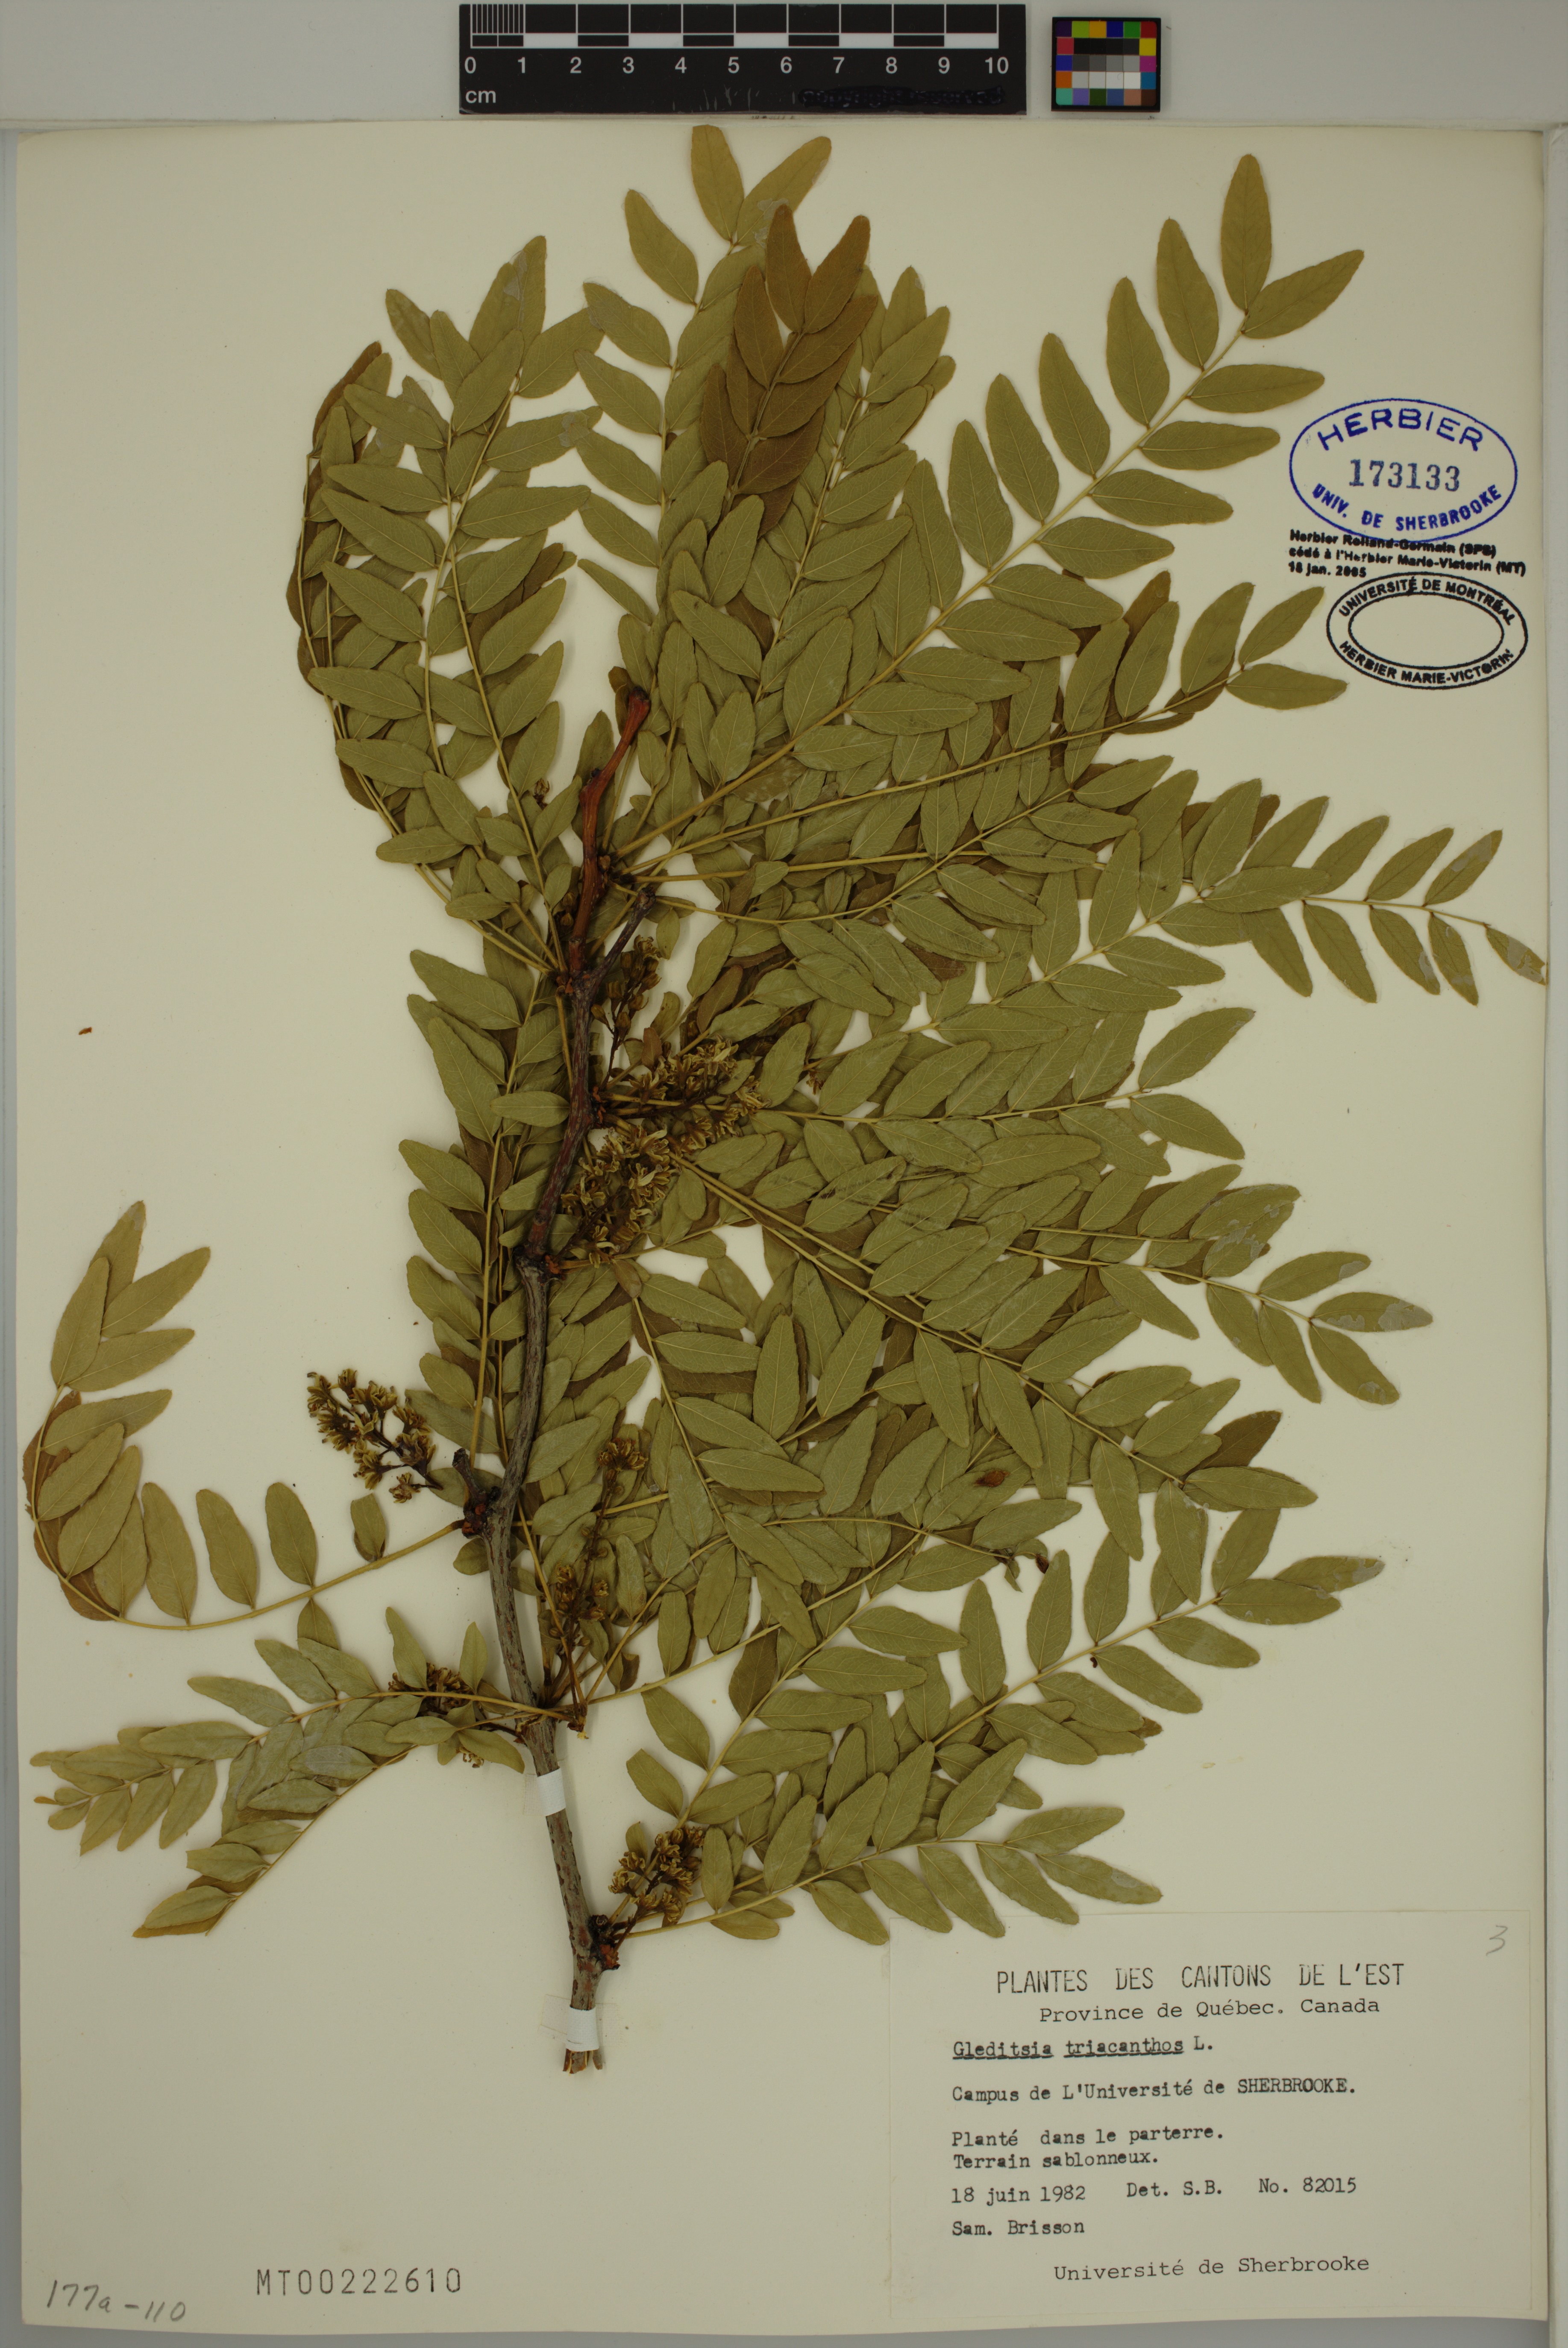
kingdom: Plantae
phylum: Tracheophyta
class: Magnoliopsida
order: Fabales
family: Fabaceae
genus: Gleditsia
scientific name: Gleditsia triacanthos
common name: Common honeylocust
